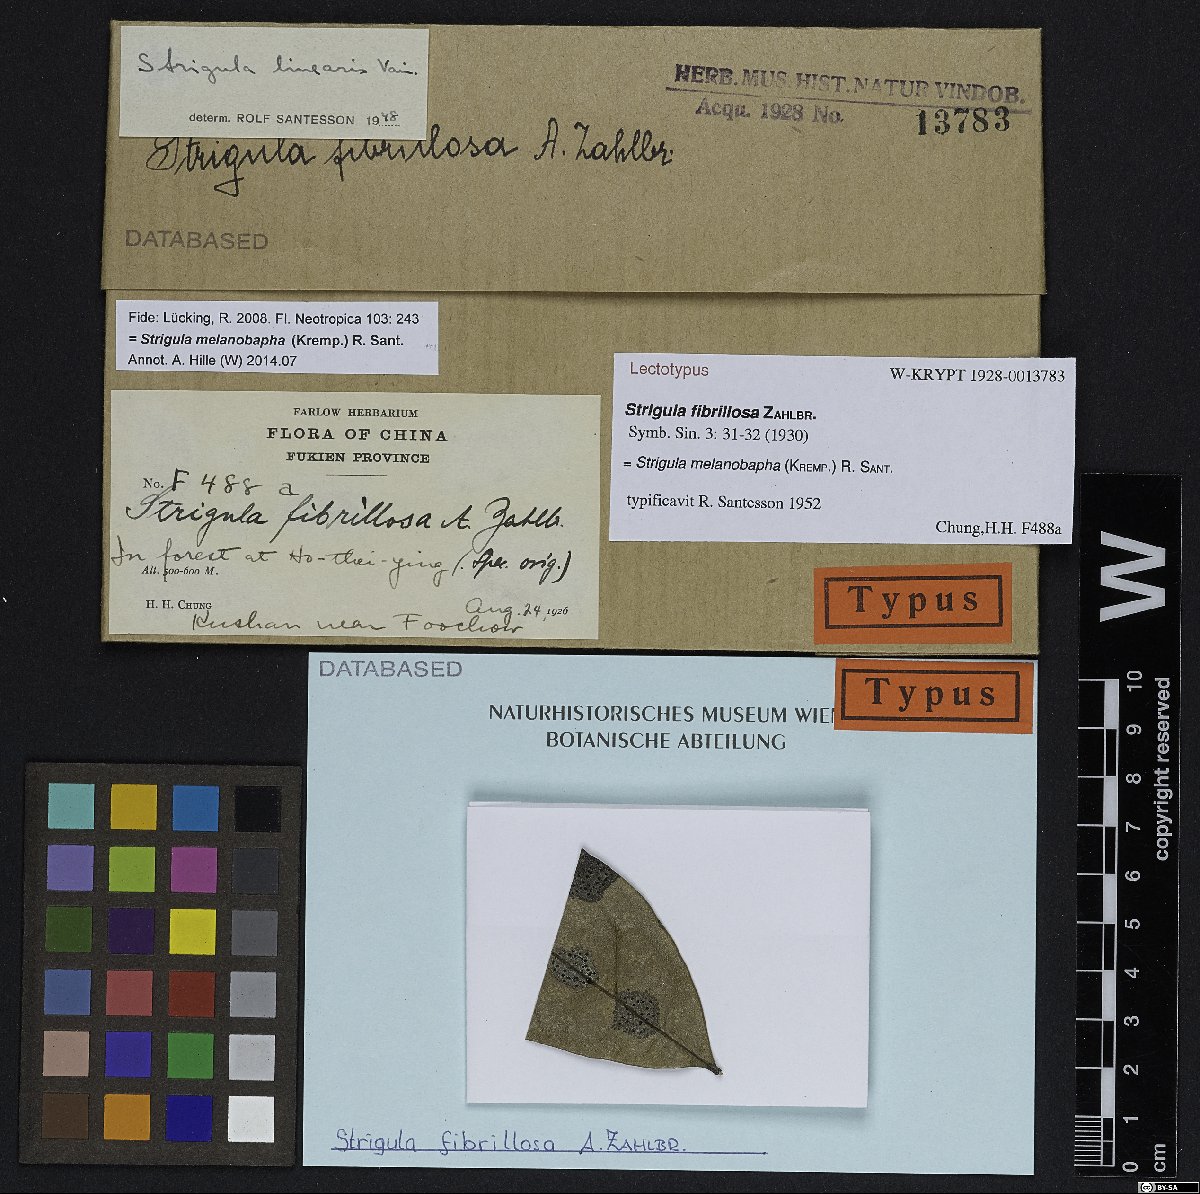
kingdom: Fungi
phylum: Ascomycota
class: Dothideomycetes
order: Strigulales
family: Strigulaceae
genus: Strigula
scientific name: Strigula
